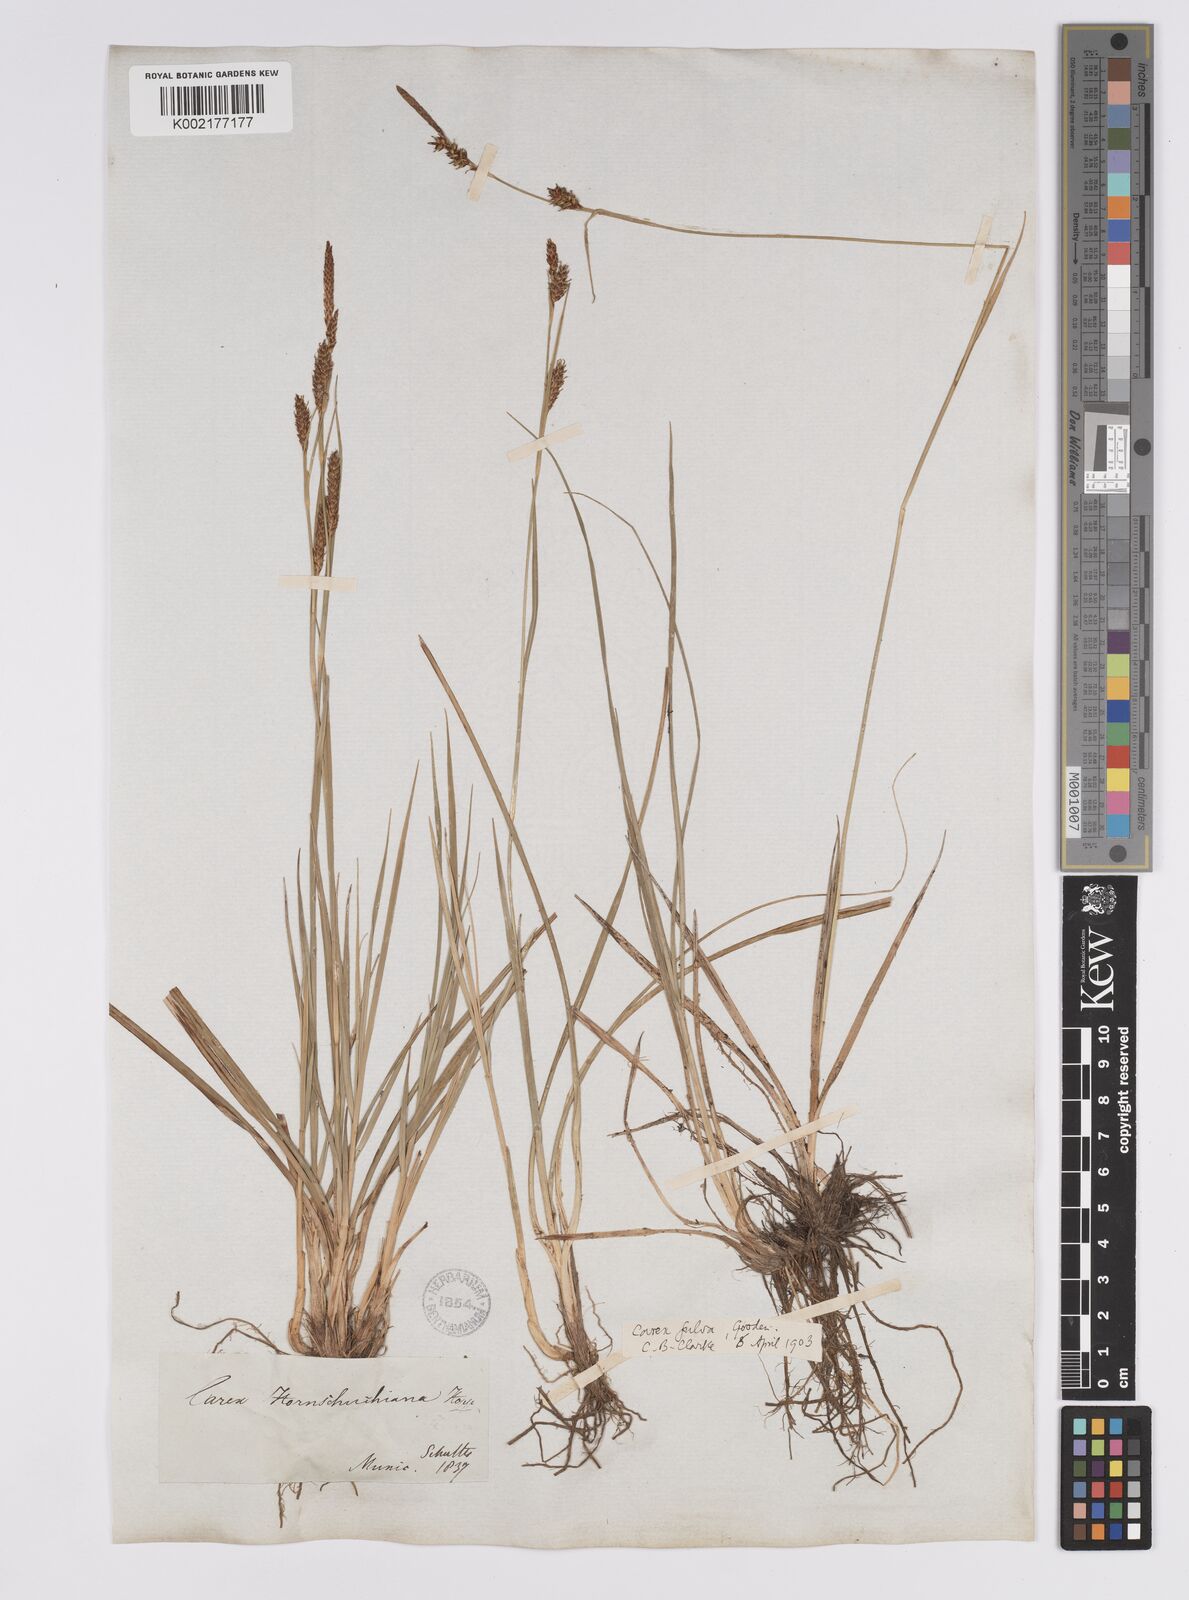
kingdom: Plantae
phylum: Tracheophyta
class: Liliopsida
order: Poales
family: Cyperaceae
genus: Carex
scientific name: Carex hostiana
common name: Tawny sedge
